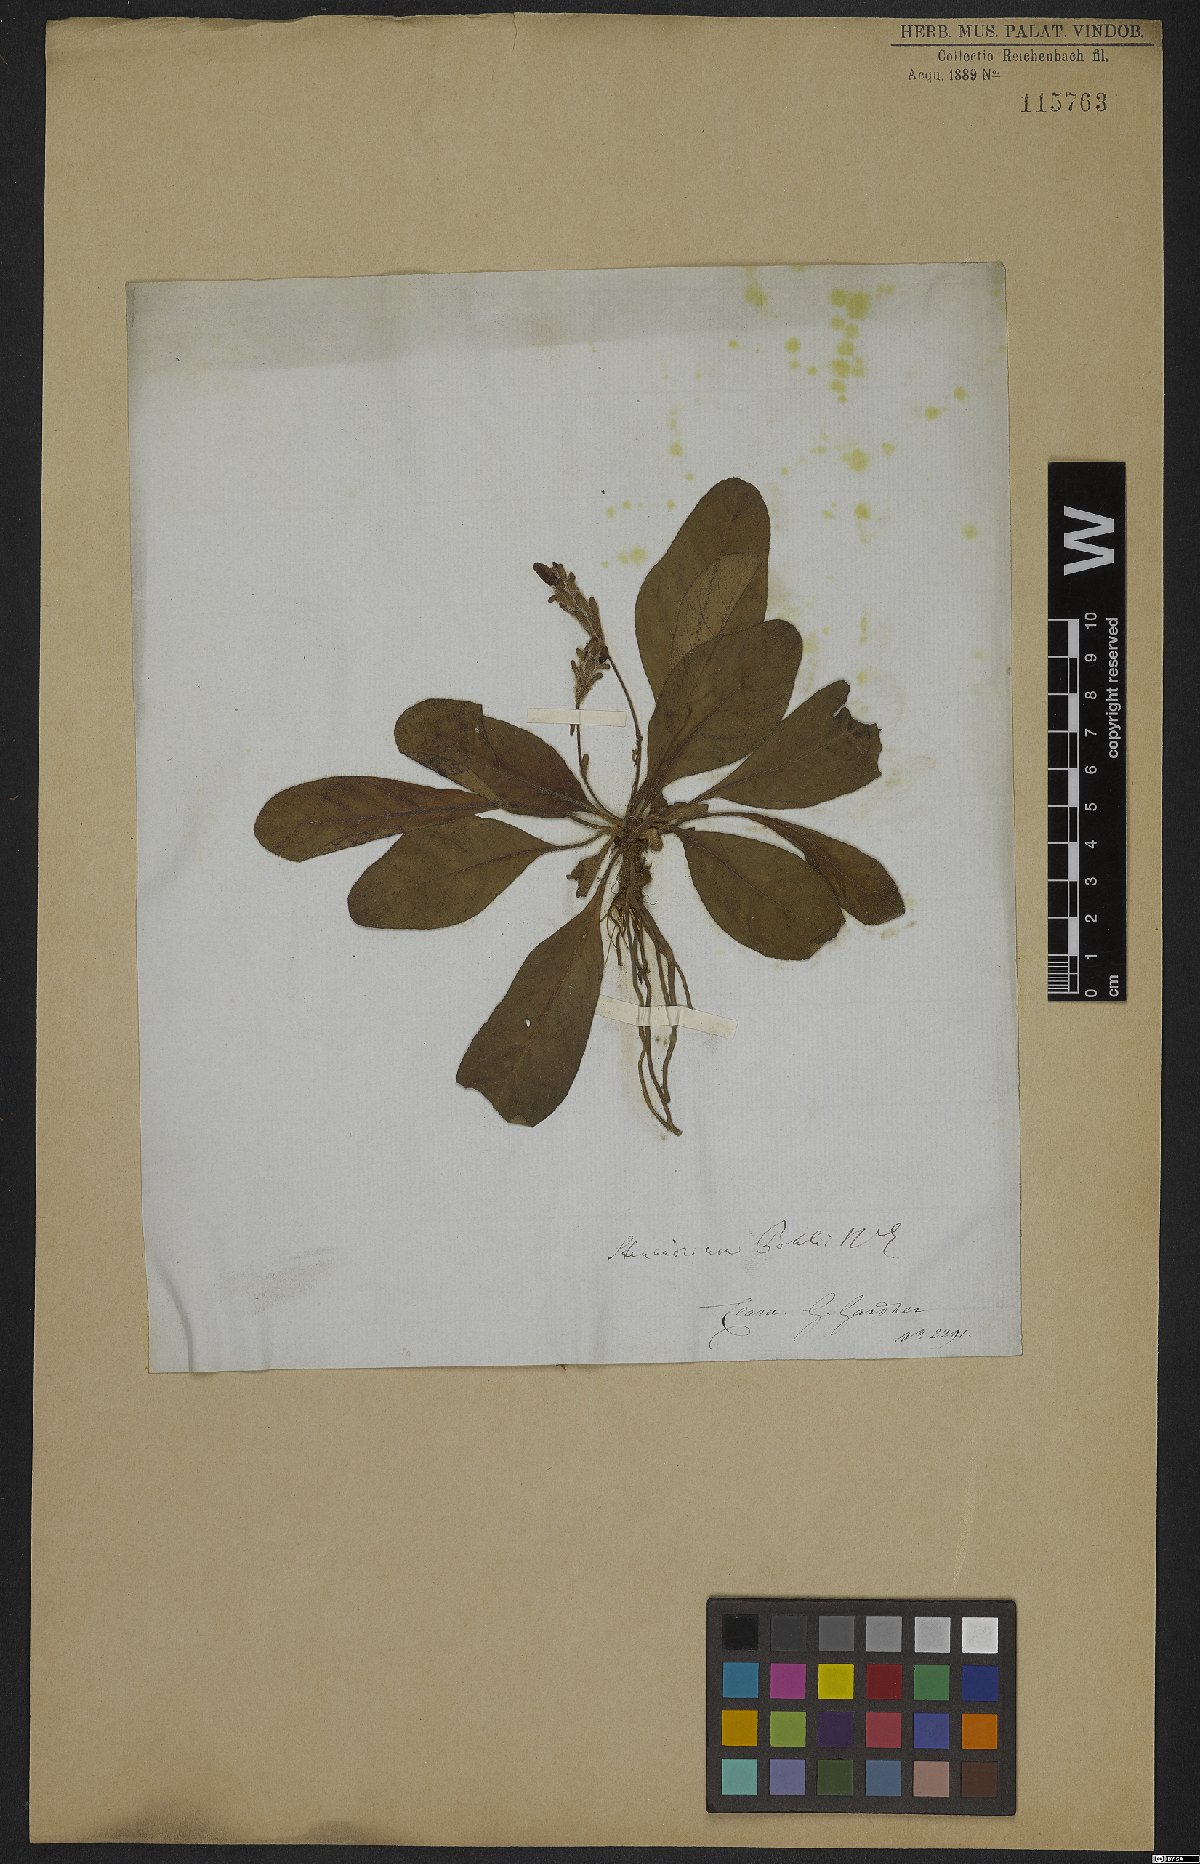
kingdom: Plantae
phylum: Tracheophyta
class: Magnoliopsida
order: Lamiales
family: Acanthaceae
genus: Stenandrium
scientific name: Stenandrium pohlii
